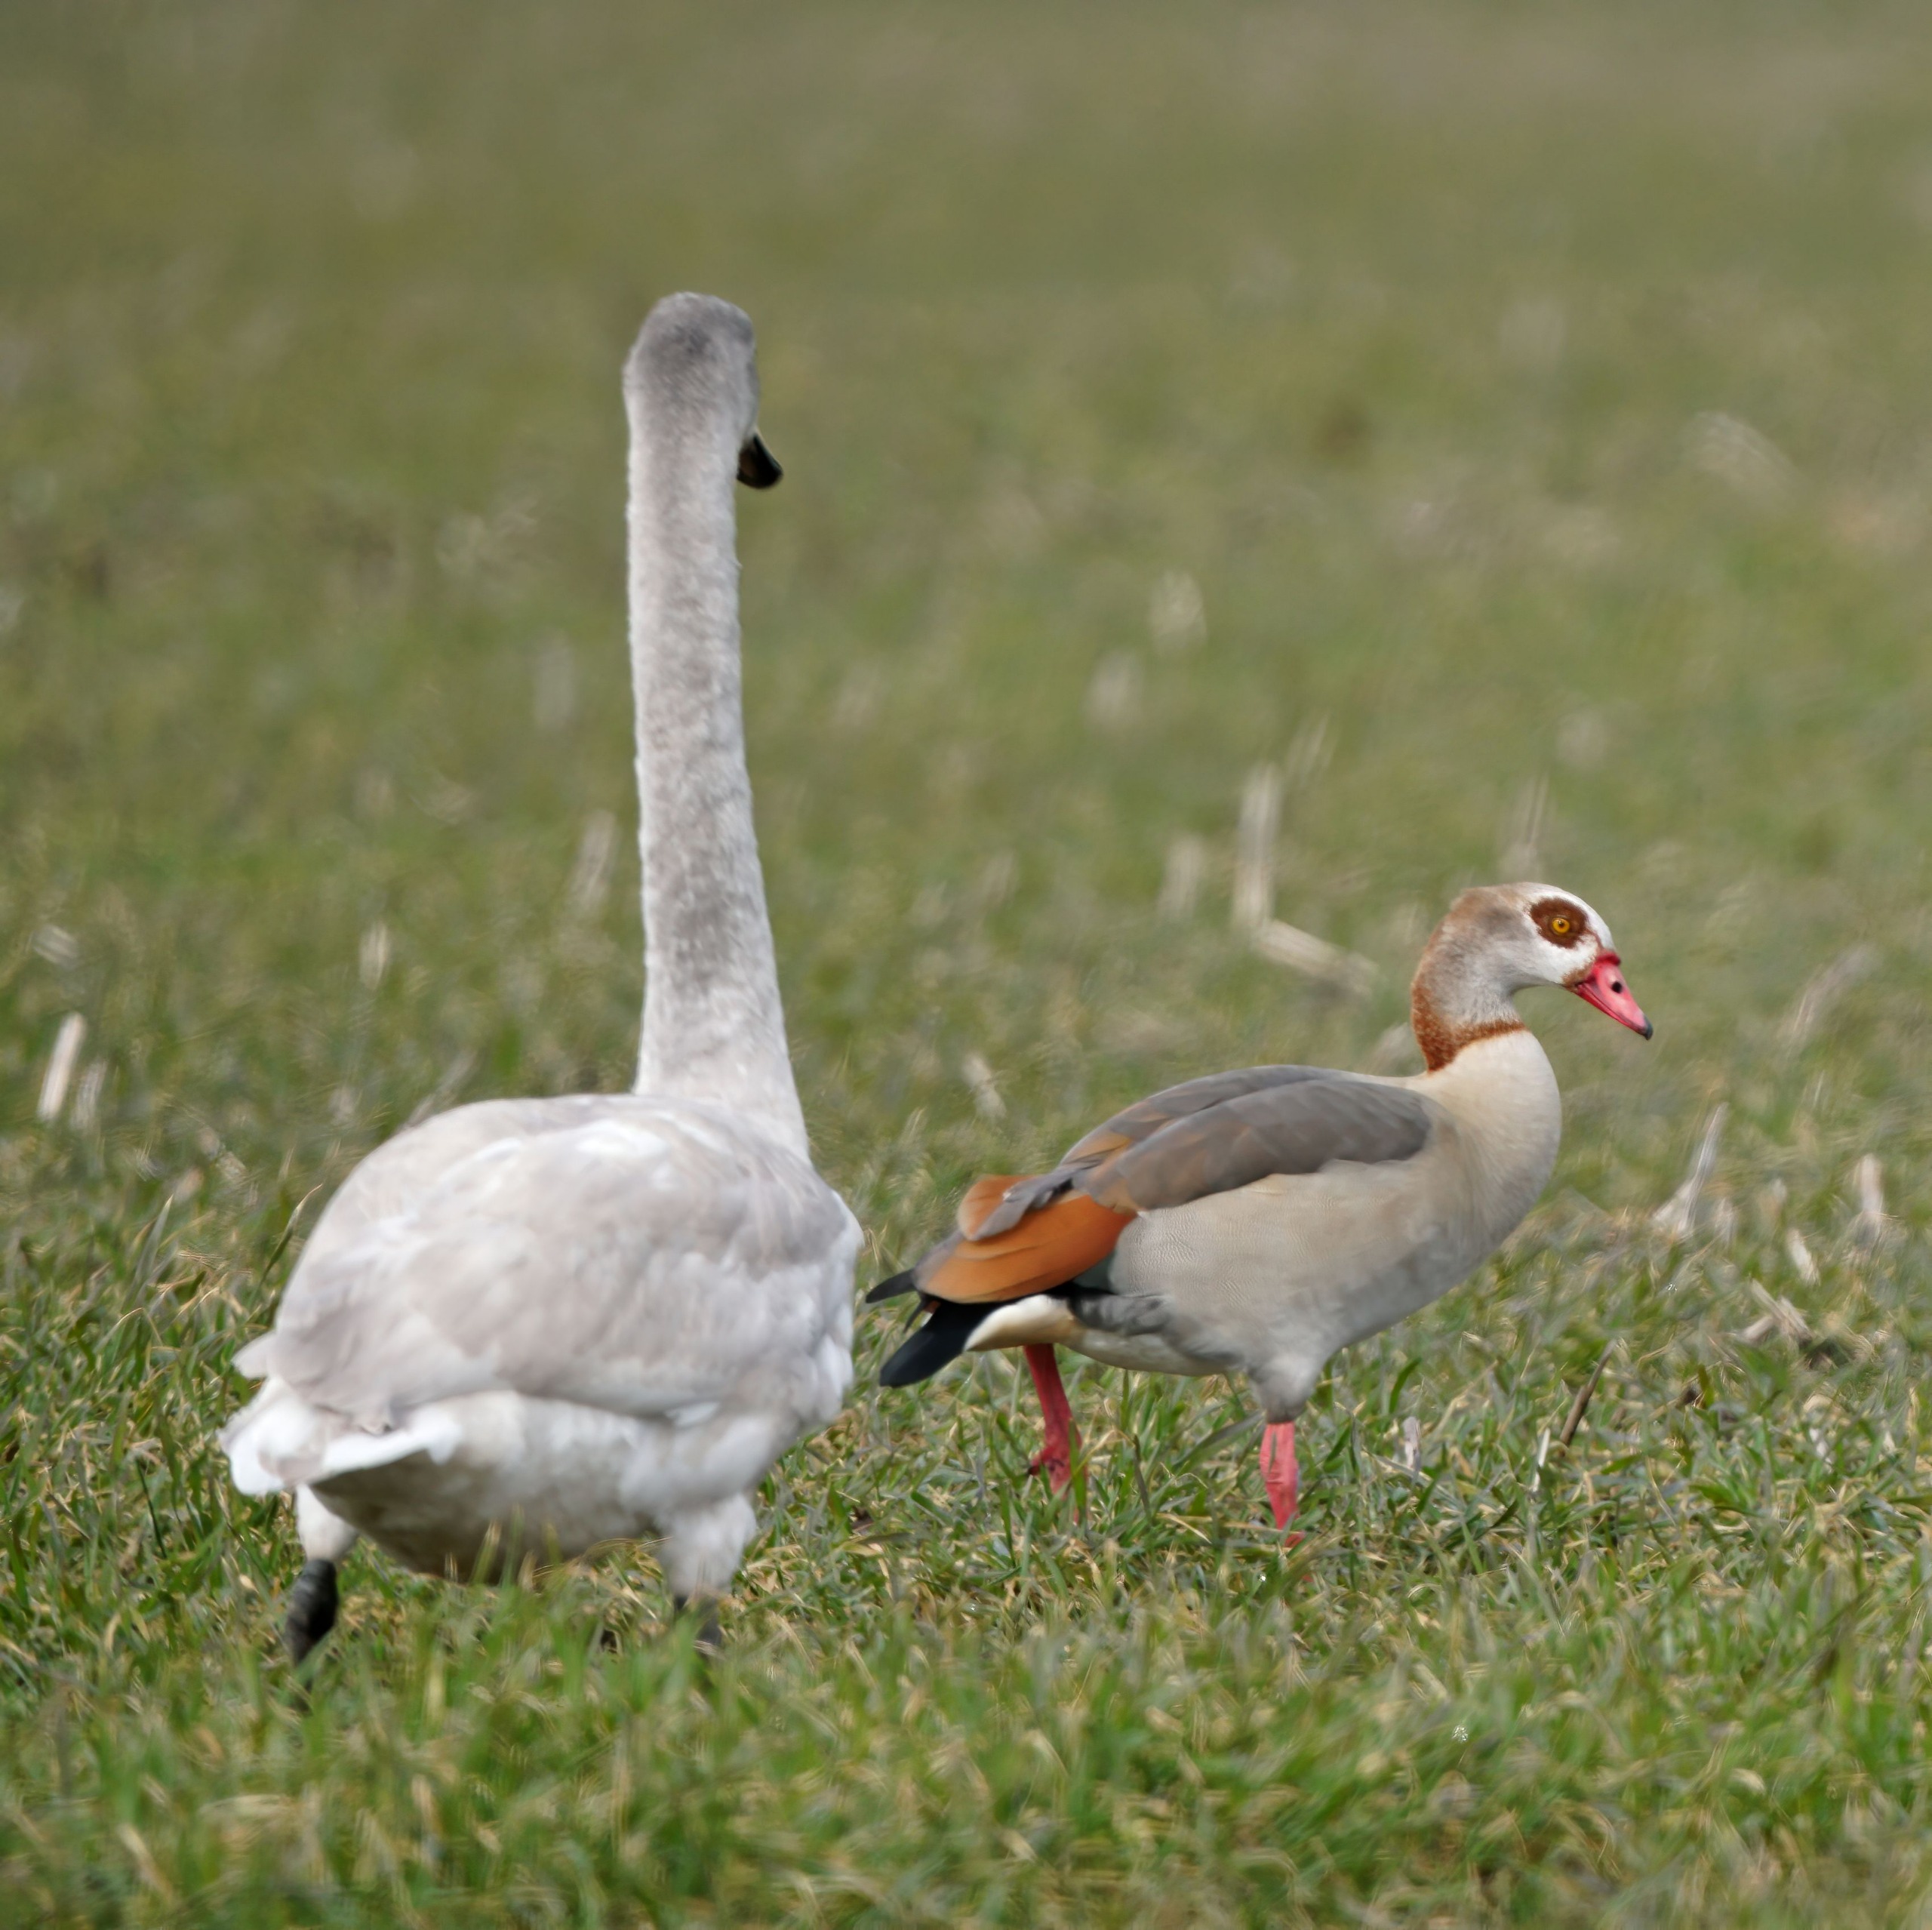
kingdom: Animalia
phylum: Chordata
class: Aves
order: Anseriformes
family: Anatidae
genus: Alopochen
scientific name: Alopochen aegyptiaca
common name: Nilgås
